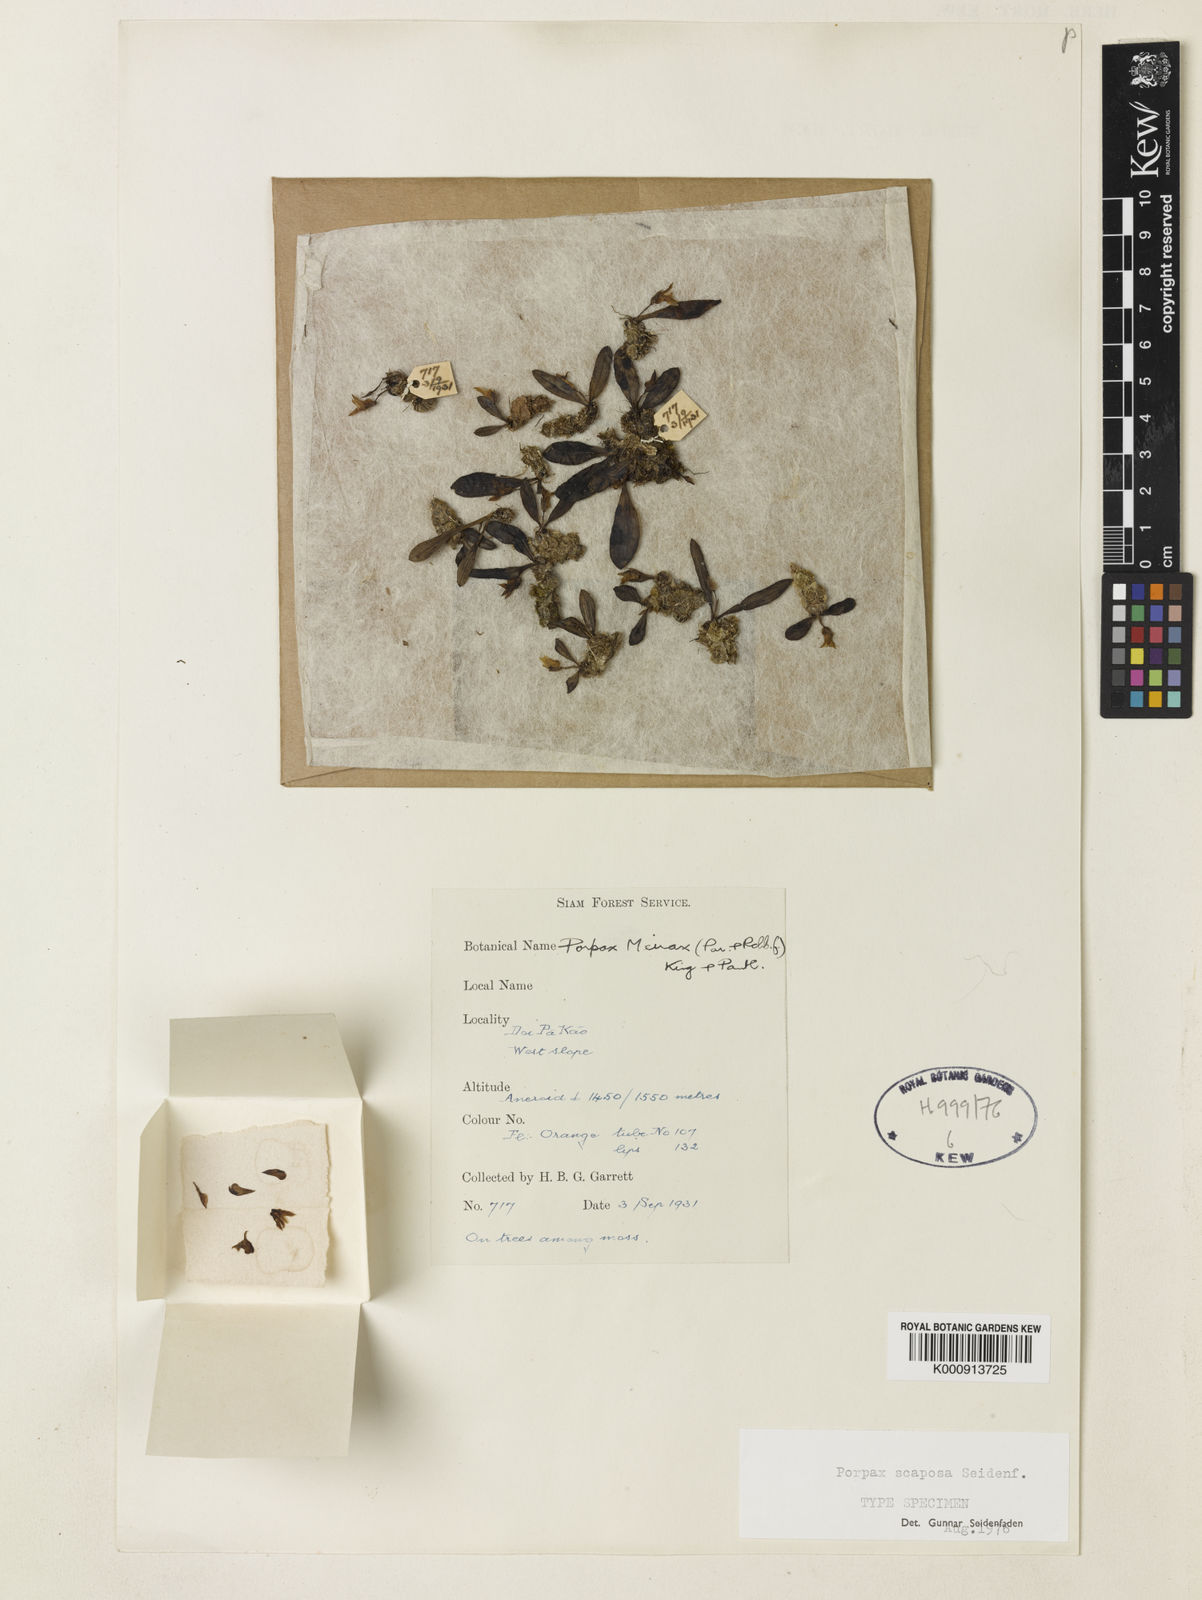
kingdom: Plantae
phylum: Tracheophyta
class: Liliopsida
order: Asparagales
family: Orchidaceae
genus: Porpax
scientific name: Porpax scaposa
